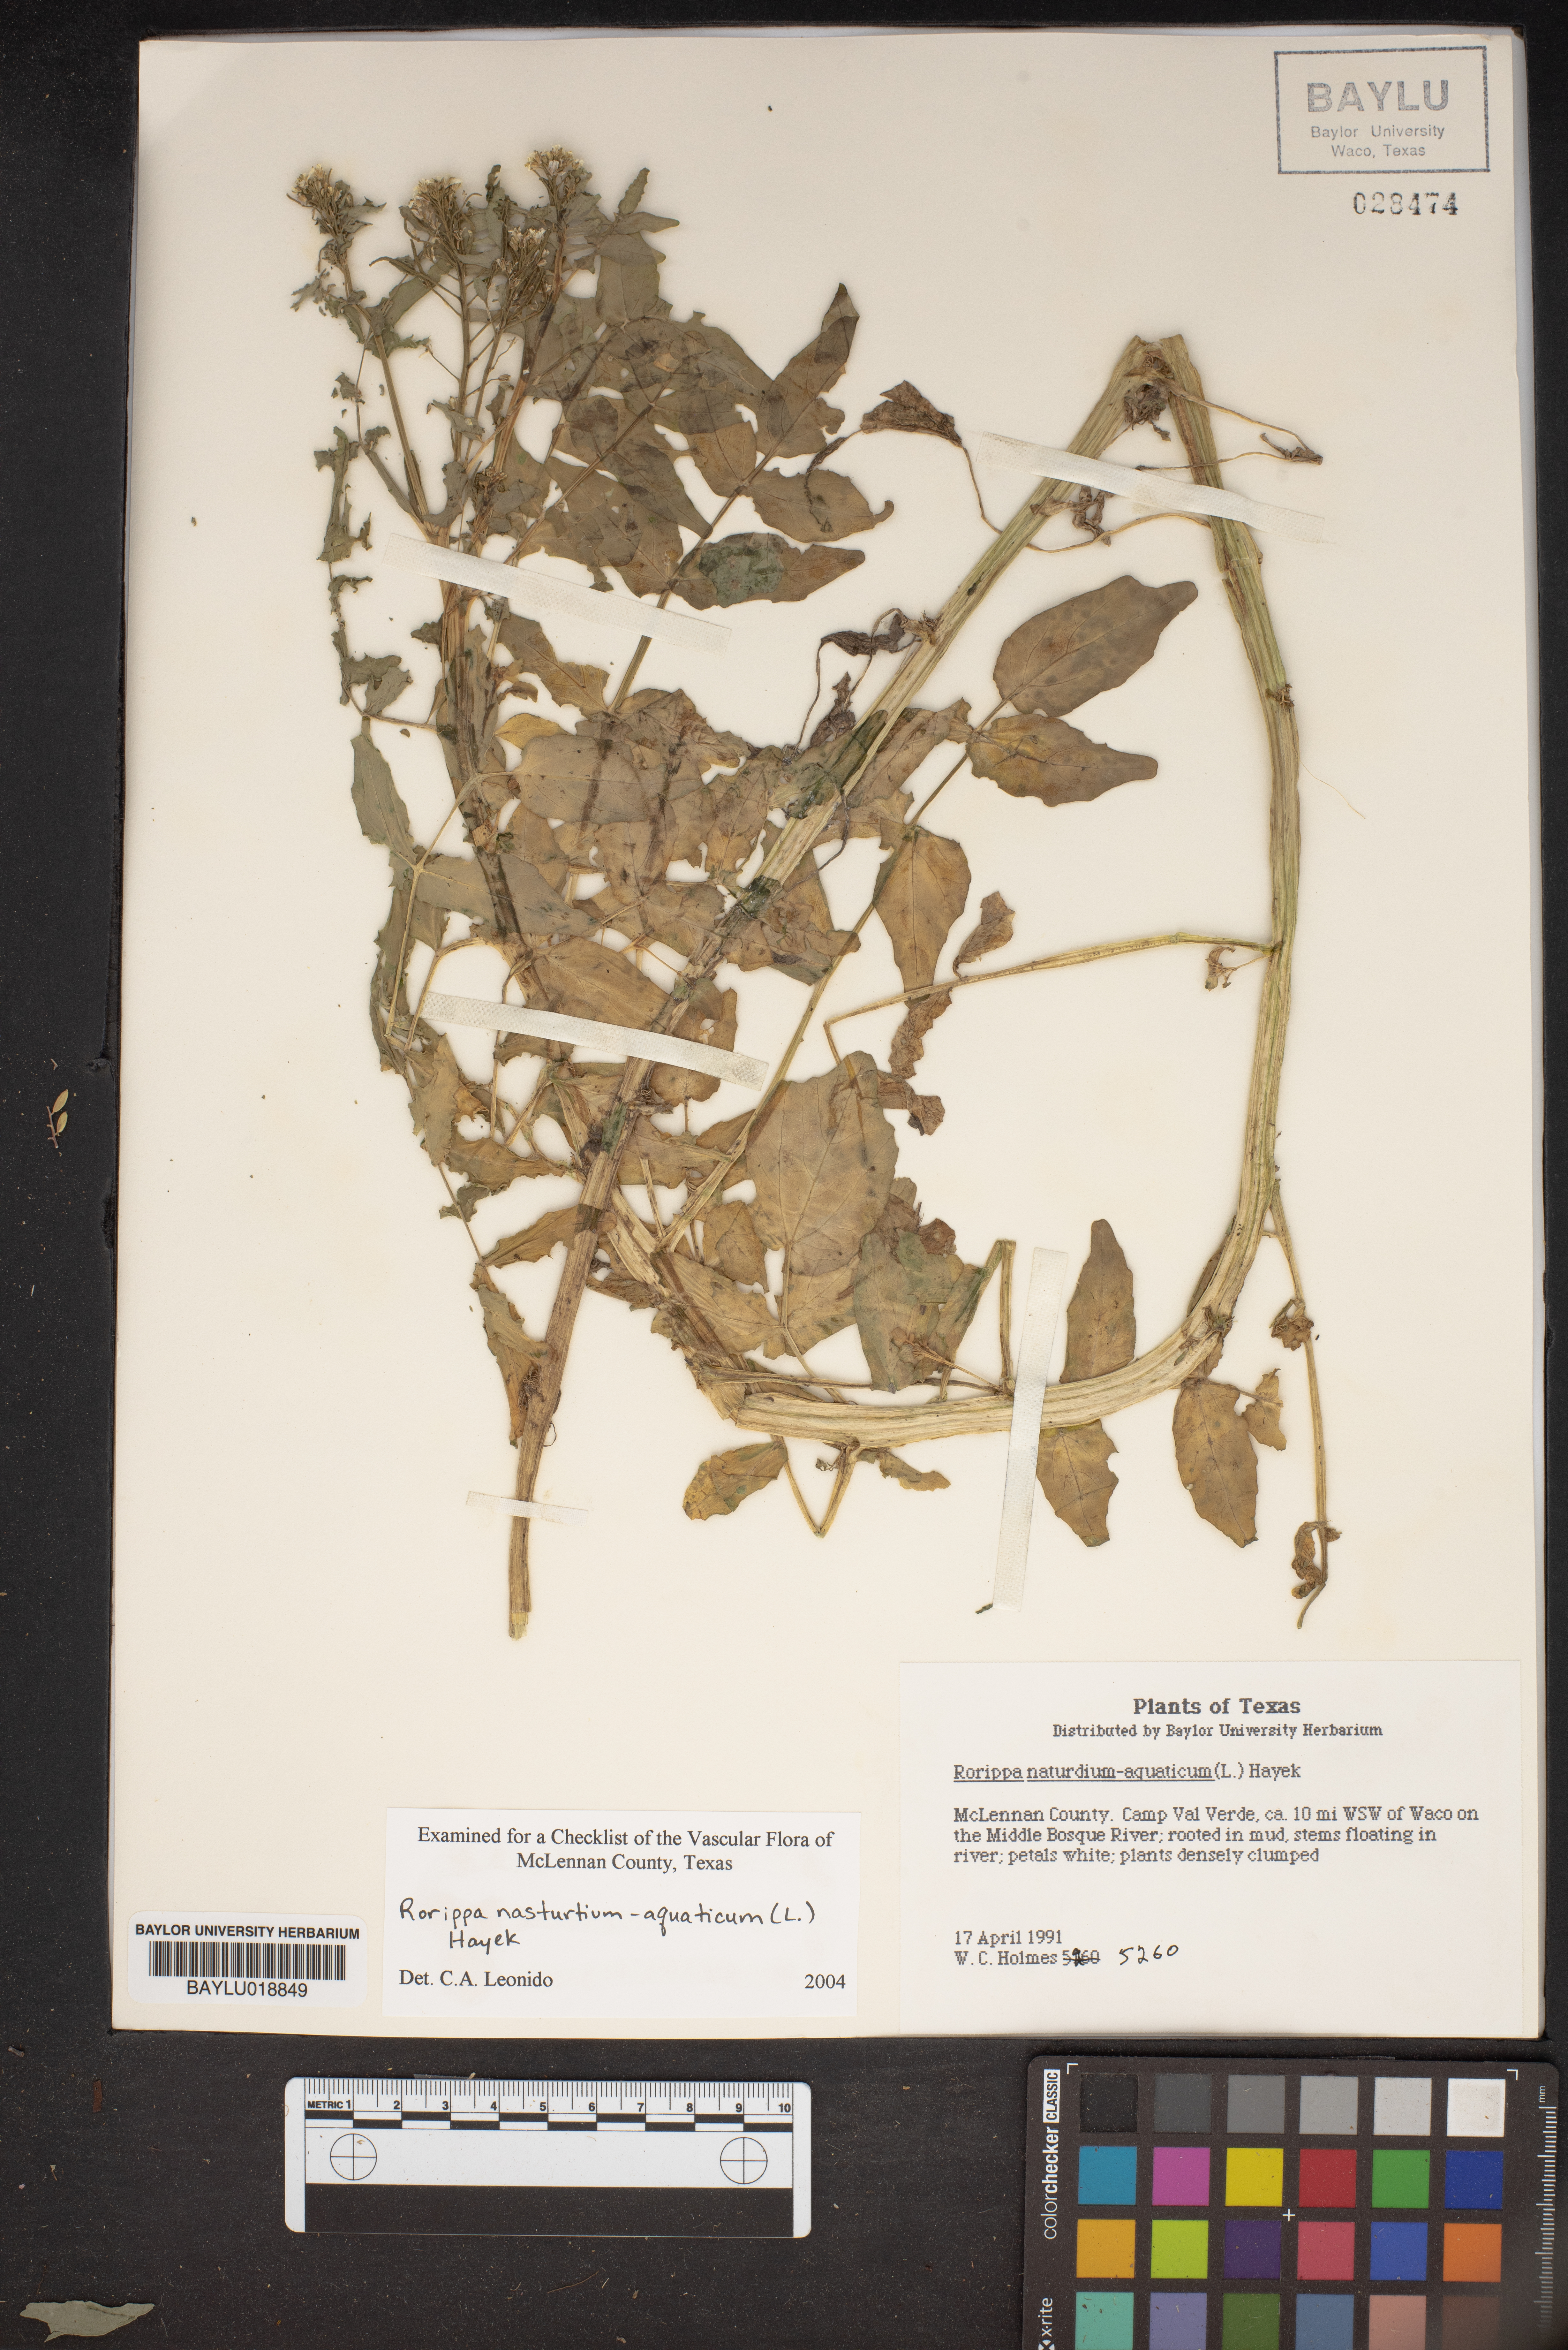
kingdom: Plantae
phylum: Tracheophyta
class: Magnoliopsida
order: Brassicales
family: Brassicaceae
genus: Nasturtium
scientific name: Nasturtium officinale
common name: Watercress
